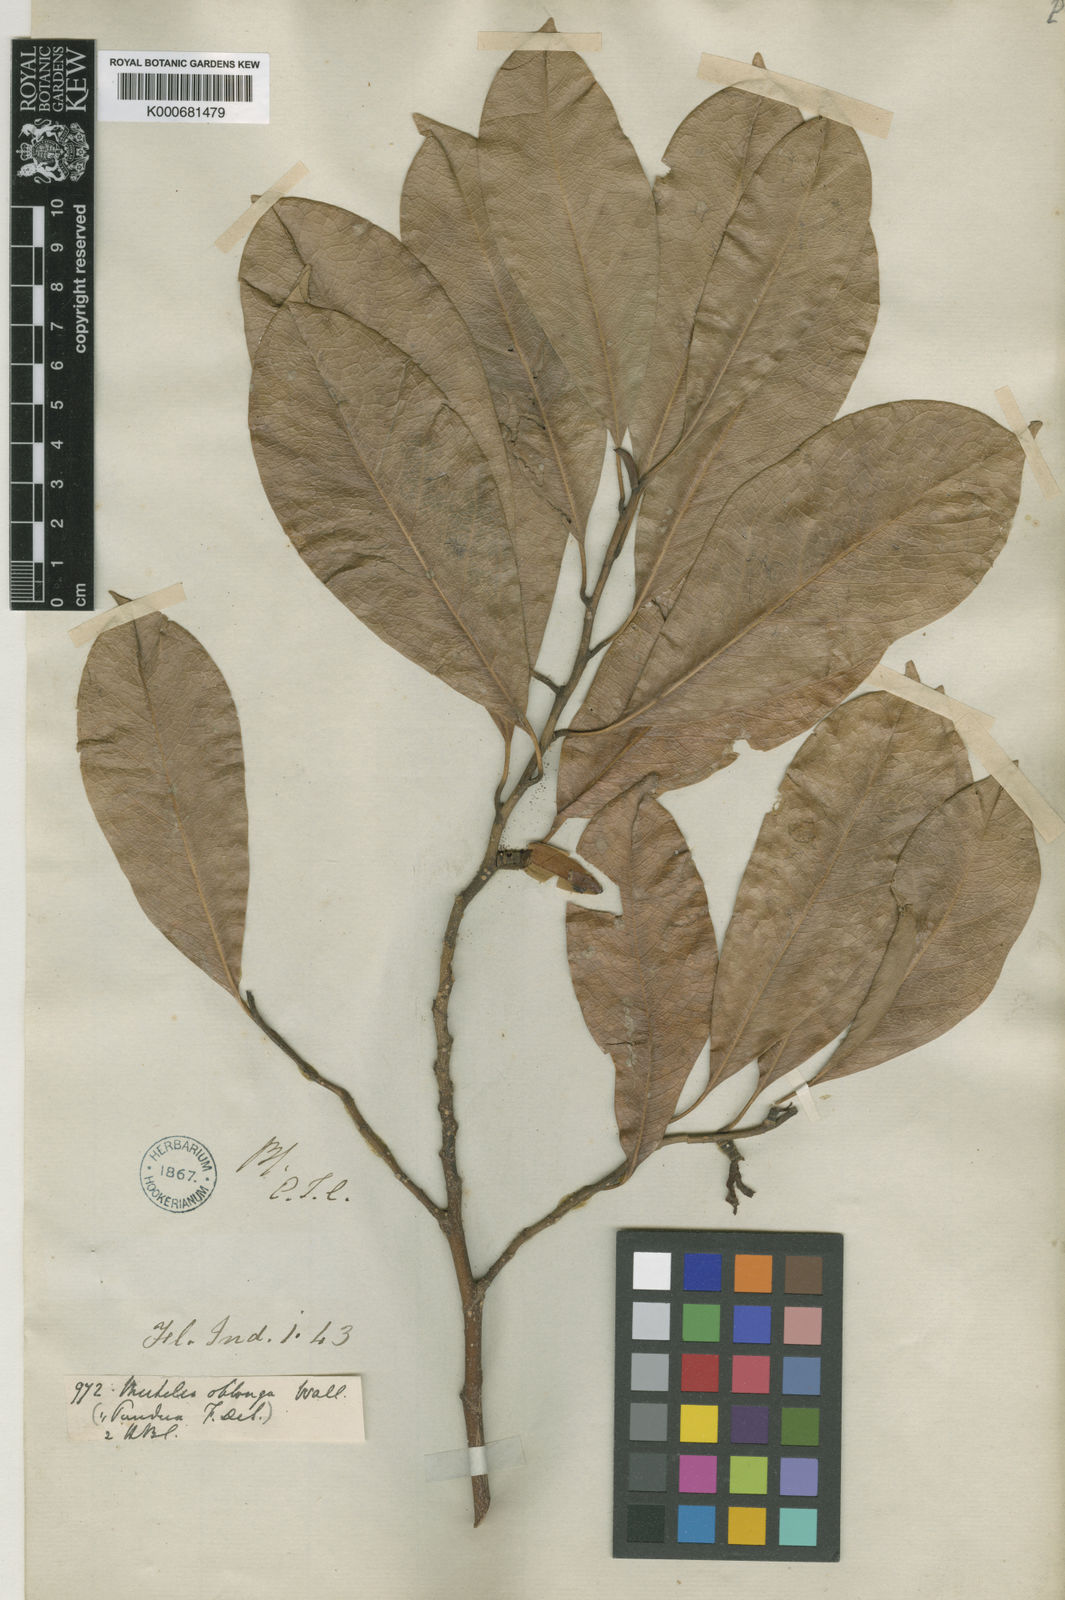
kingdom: Plantae
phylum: Tracheophyta
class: Magnoliopsida
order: Magnoliales
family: Magnoliaceae
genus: Magnolia
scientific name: Magnolia oblonga
